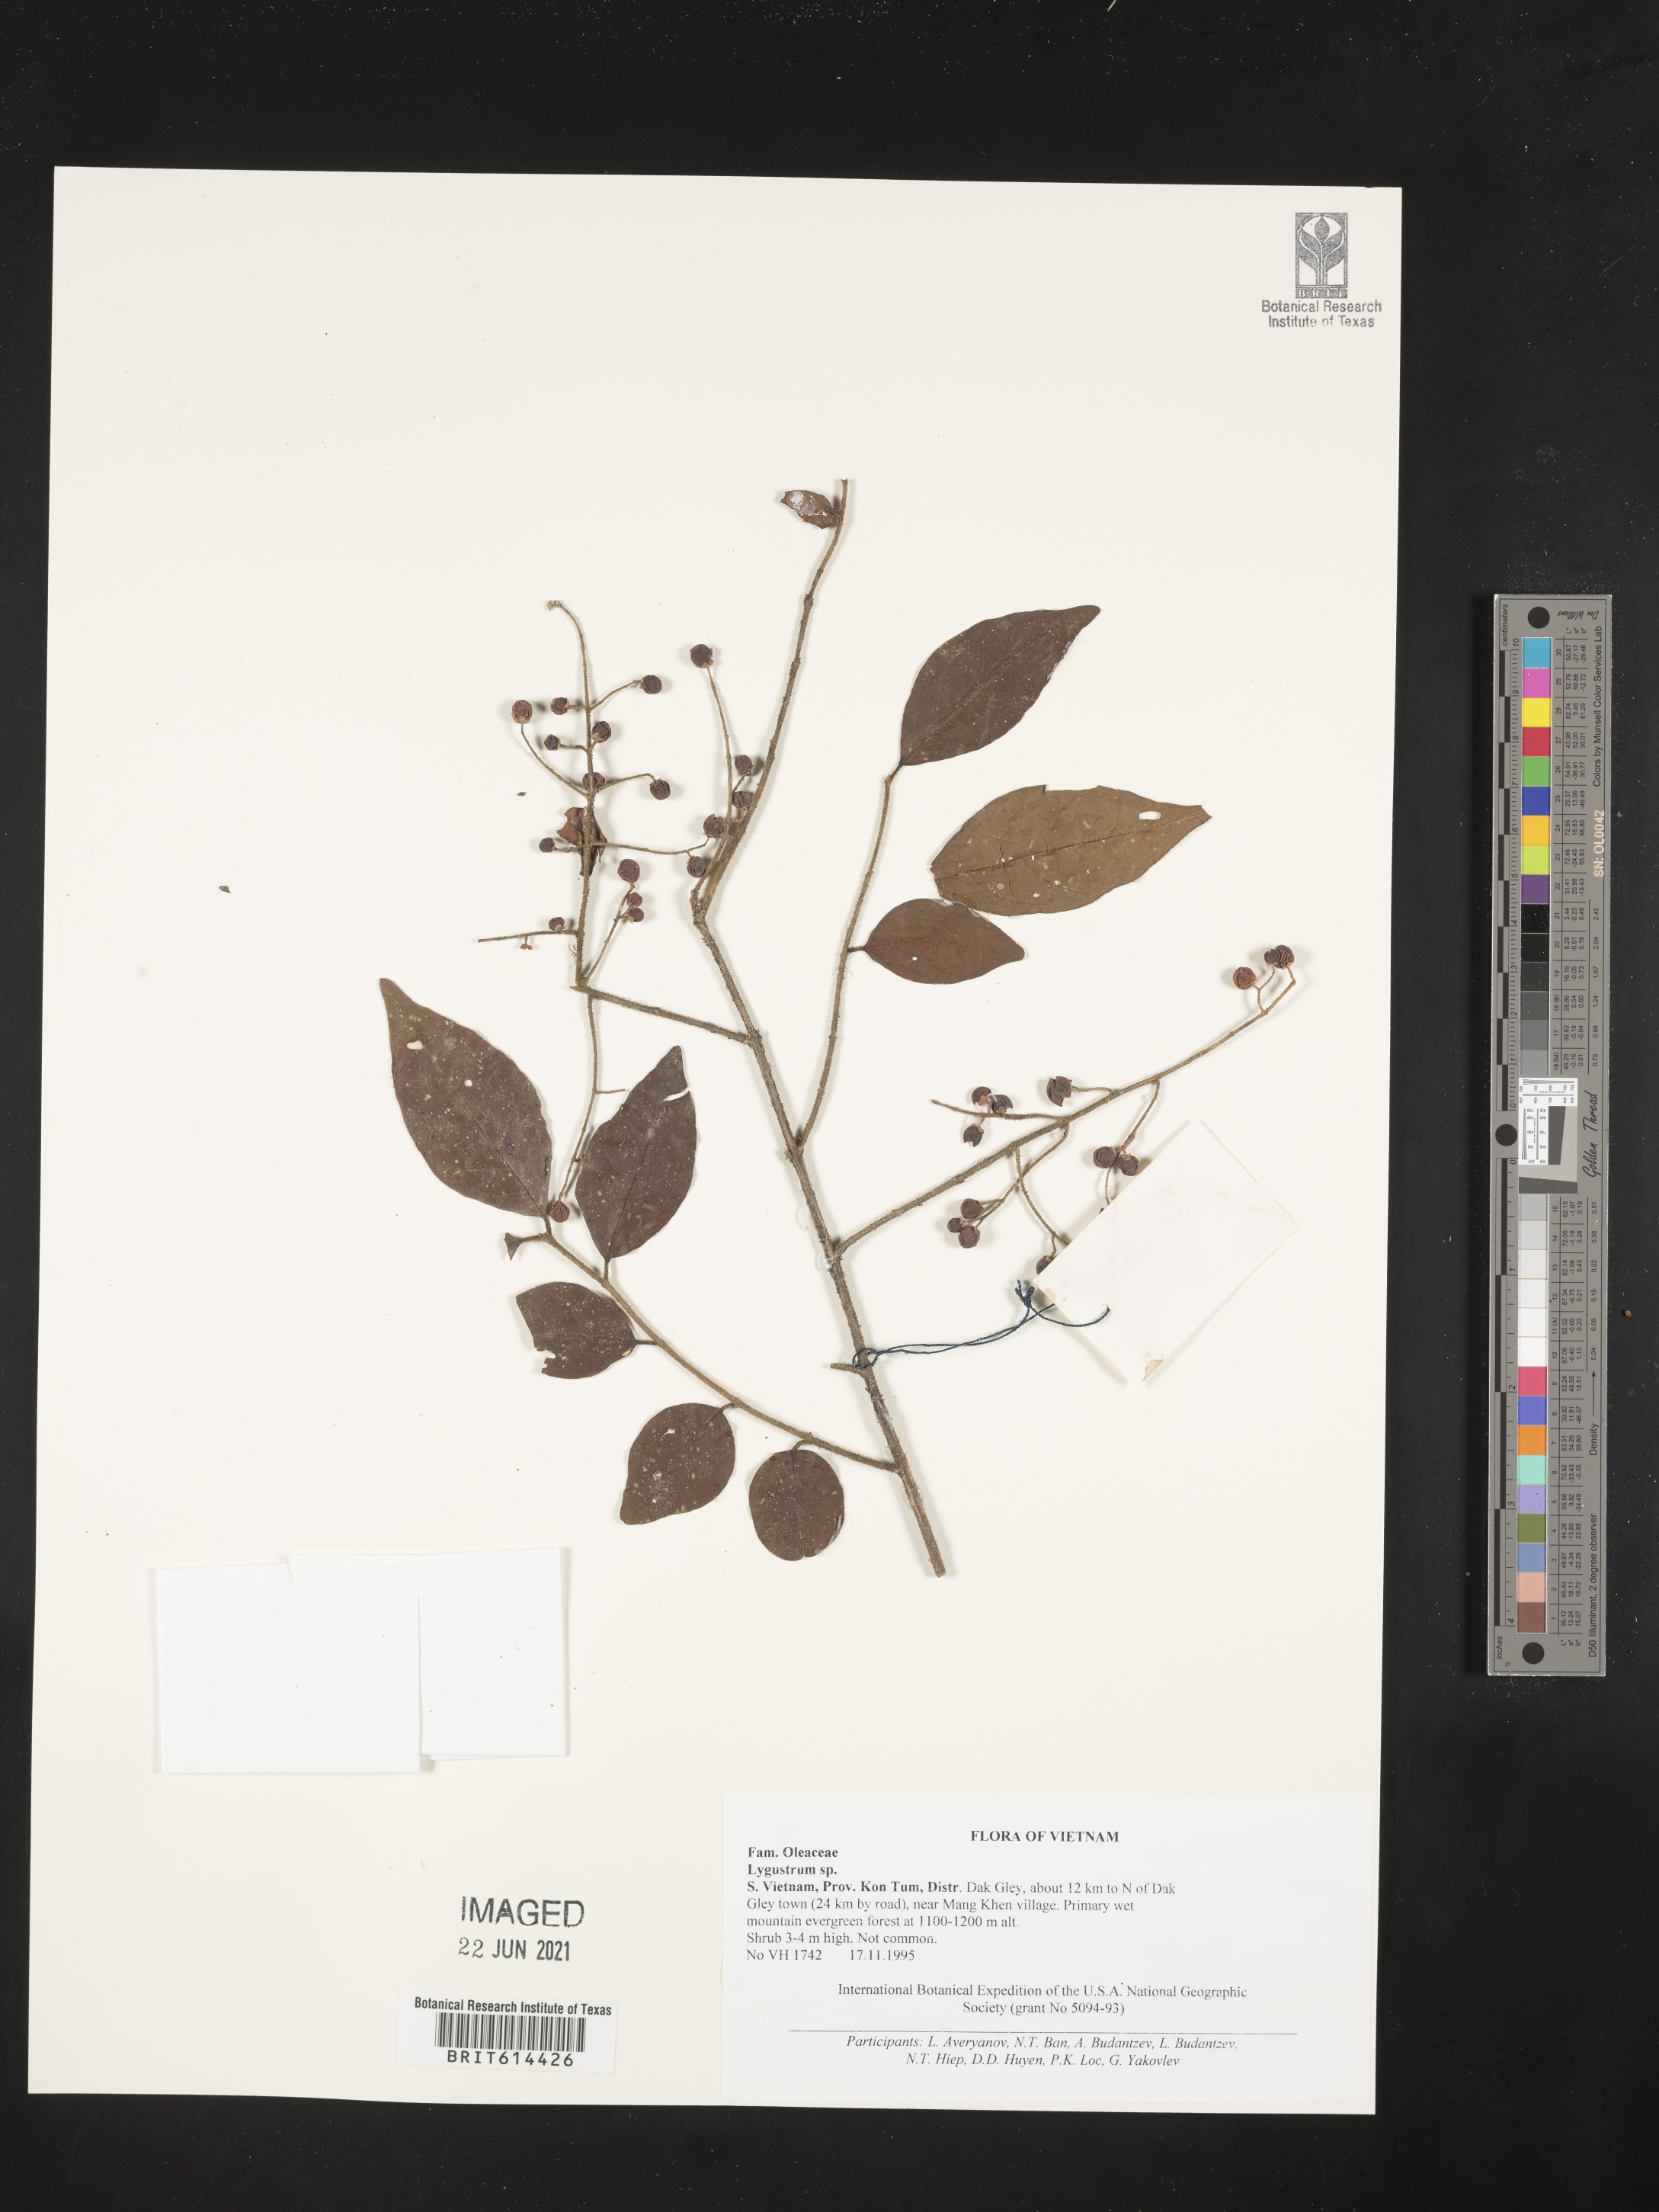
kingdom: Plantae
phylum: Tracheophyta
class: Magnoliopsida
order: Lamiales
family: Oleaceae
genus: Ligustrum
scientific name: Ligustrum
